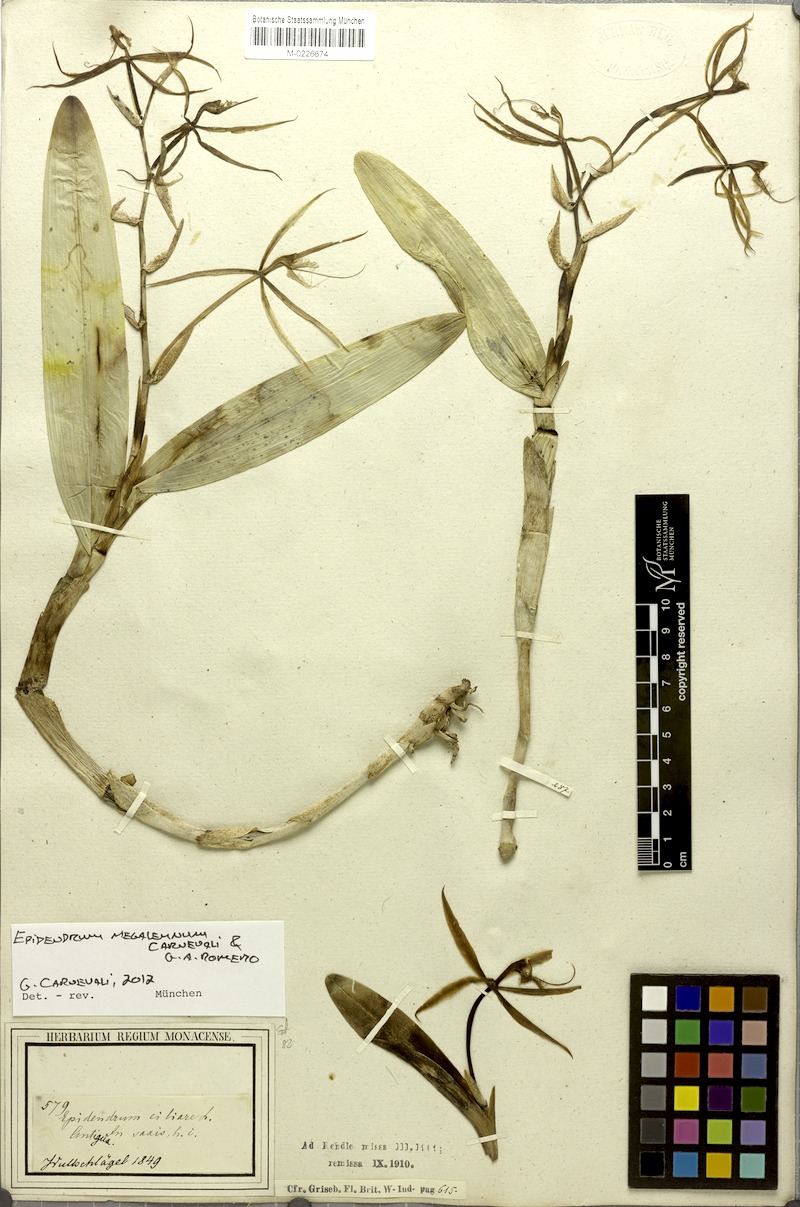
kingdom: Plantae
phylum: Tracheophyta
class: Liliopsida
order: Asparagales
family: Orchidaceae
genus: Epidendrum
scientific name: Epidendrum megalemmum
